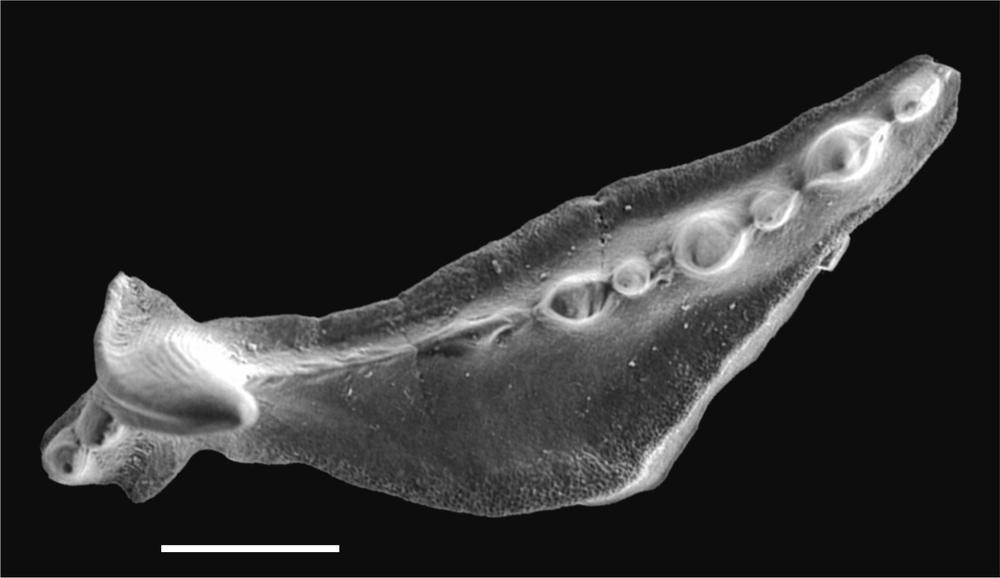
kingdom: Animalia
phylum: Chordata
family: Balognathidae
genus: Baltoniodus
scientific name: Baltoniodus
